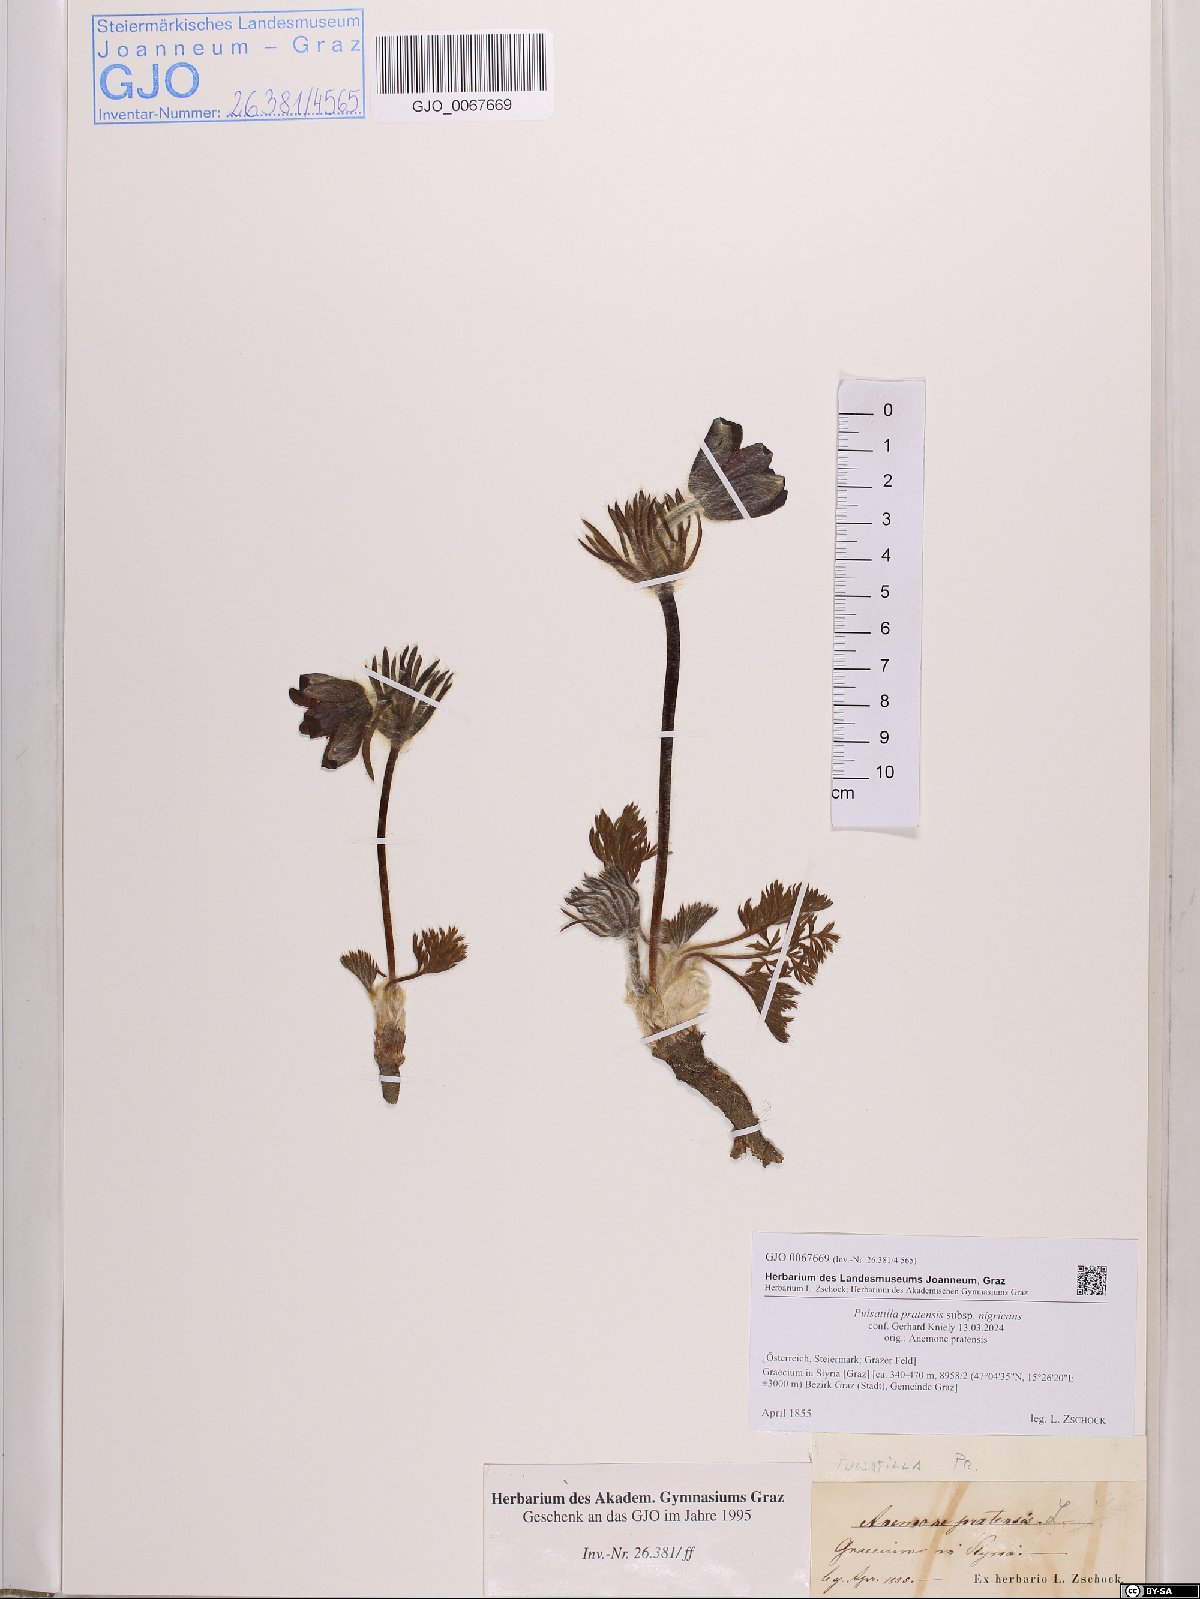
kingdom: Plantae
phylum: Tracheophyta
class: Magnoliopsida
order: Ranunculales
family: Ranunculaceae
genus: Pulsatilla
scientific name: Pulsatilla pratensis
